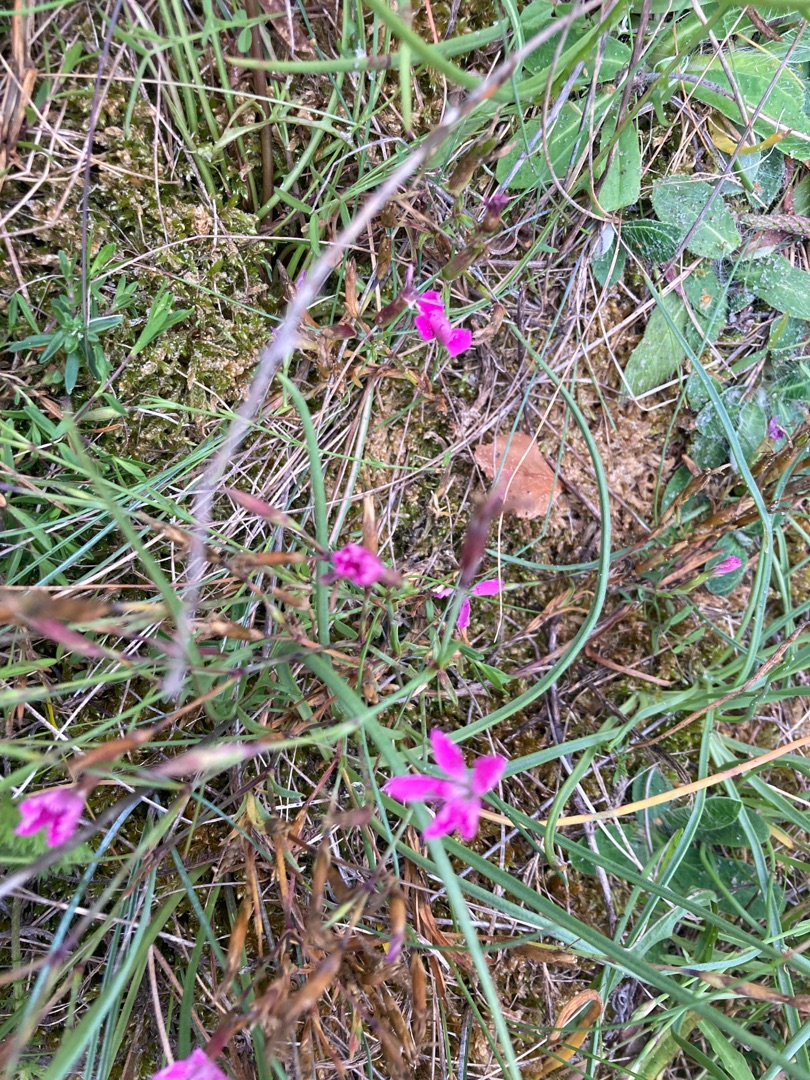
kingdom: Plantae
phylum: Tracheophyta
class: Magnoliopsida
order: Caryophyllales
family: Caryophyllaceae
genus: Dianthus
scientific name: Dianthus deltoides
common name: Bakke-nellike
